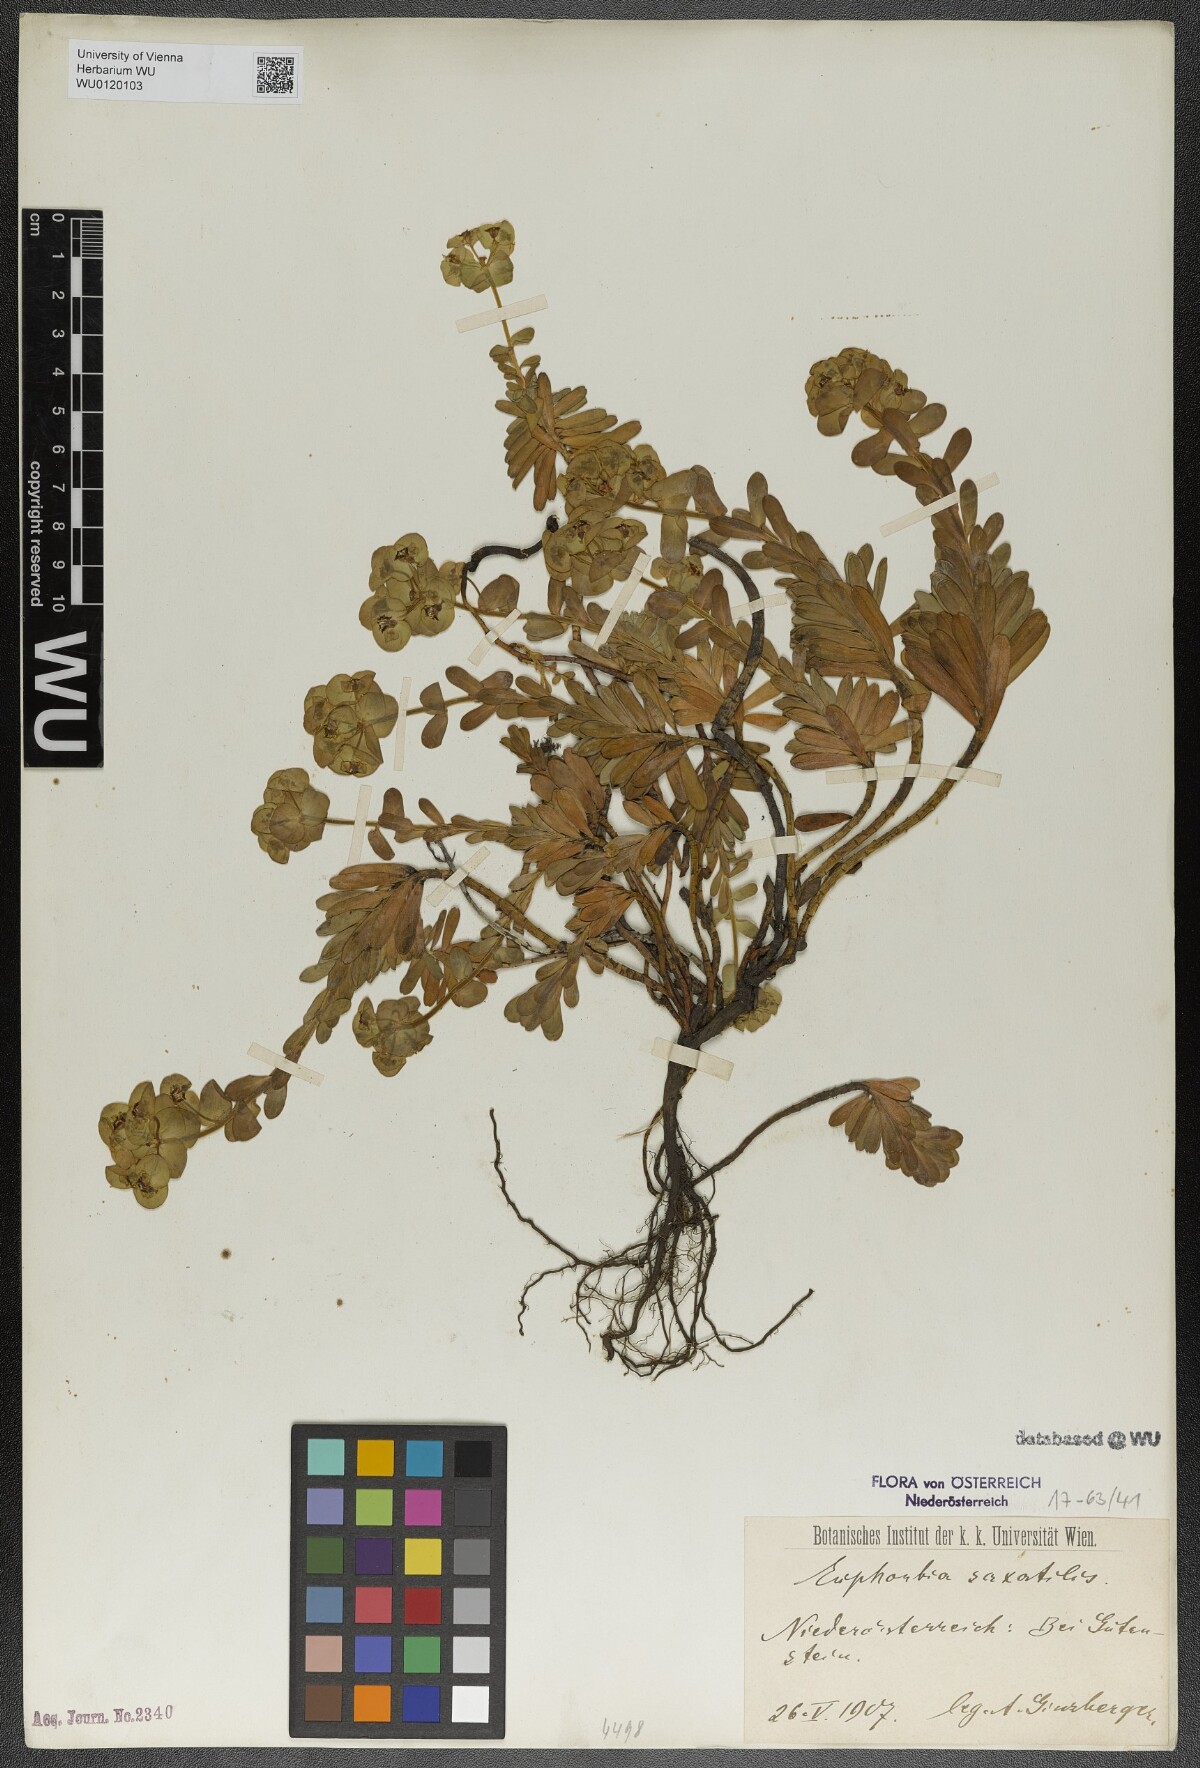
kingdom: Plantae
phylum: Tracheophyta
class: Magnoliopsida
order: Malpighiales
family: Euphorbiaceae
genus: Euphorbia
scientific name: Euphorbia saxatilis
